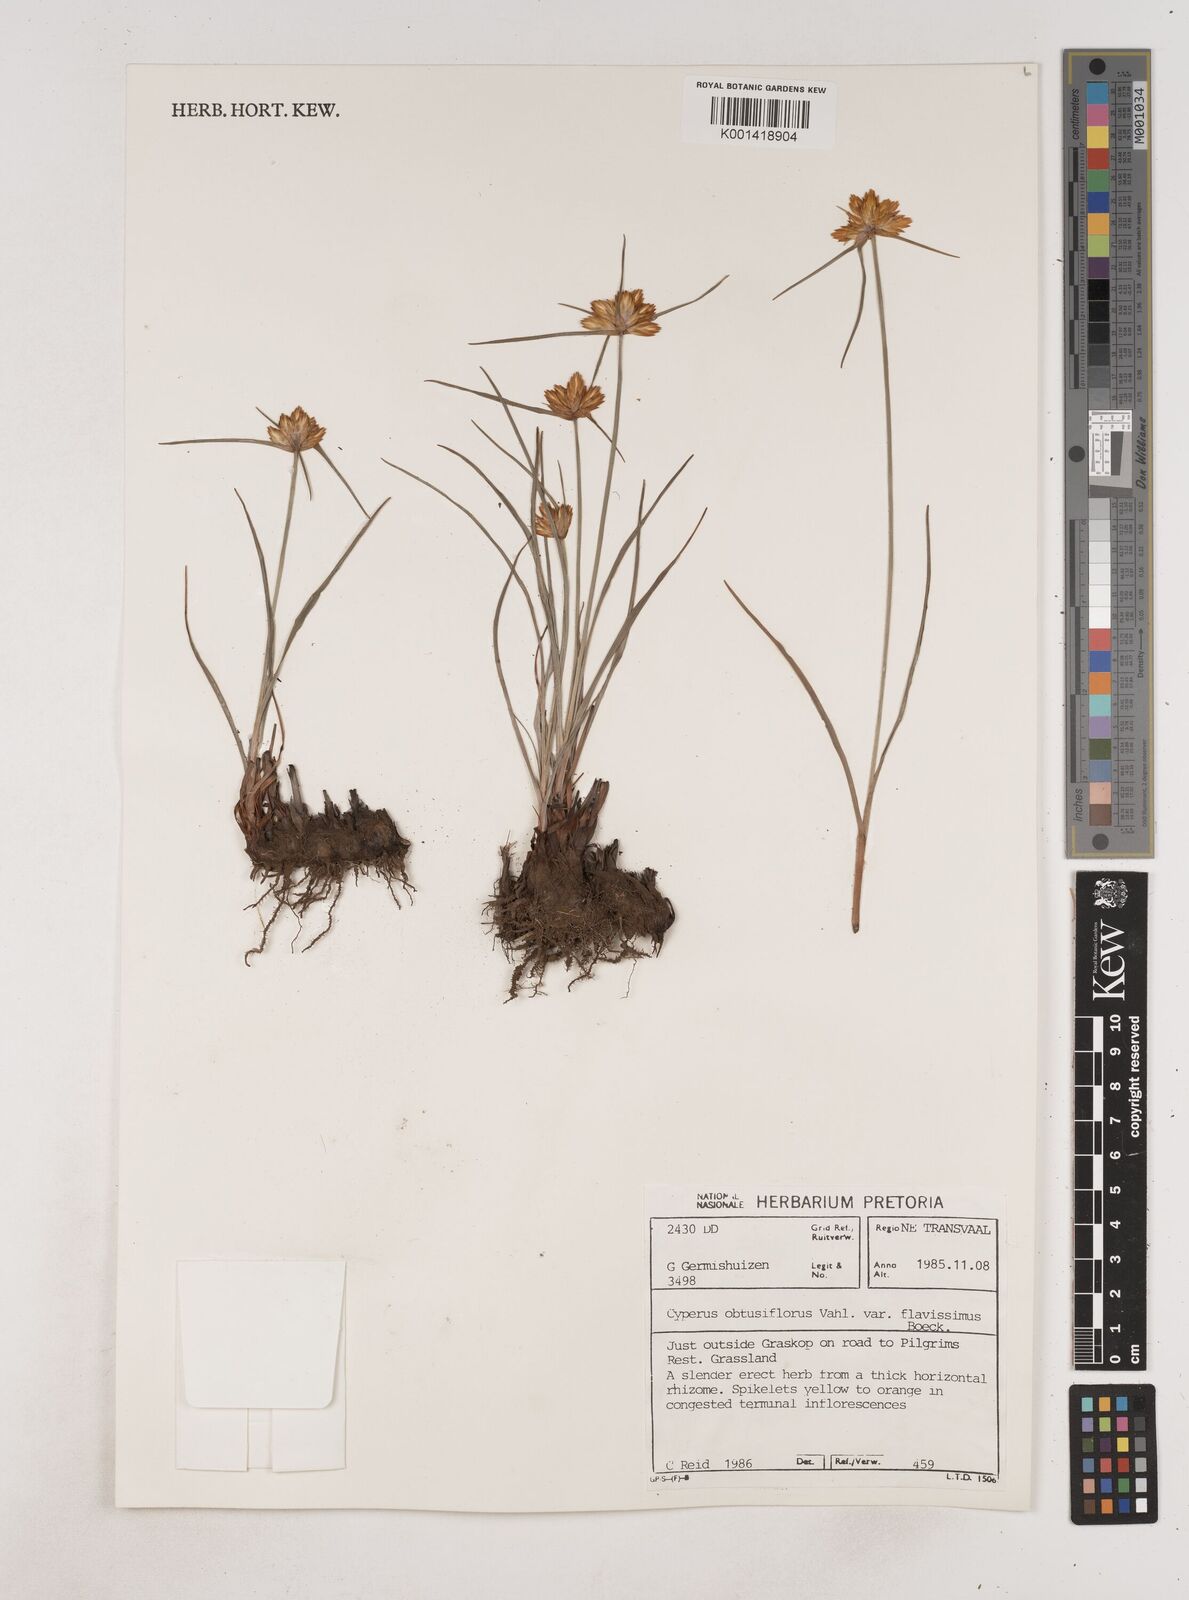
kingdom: Plantae
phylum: Tracheophyta
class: Liliopsida
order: Poales
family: Cyperaceae
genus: Cyperus
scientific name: Cyperus sphaerocephalus
